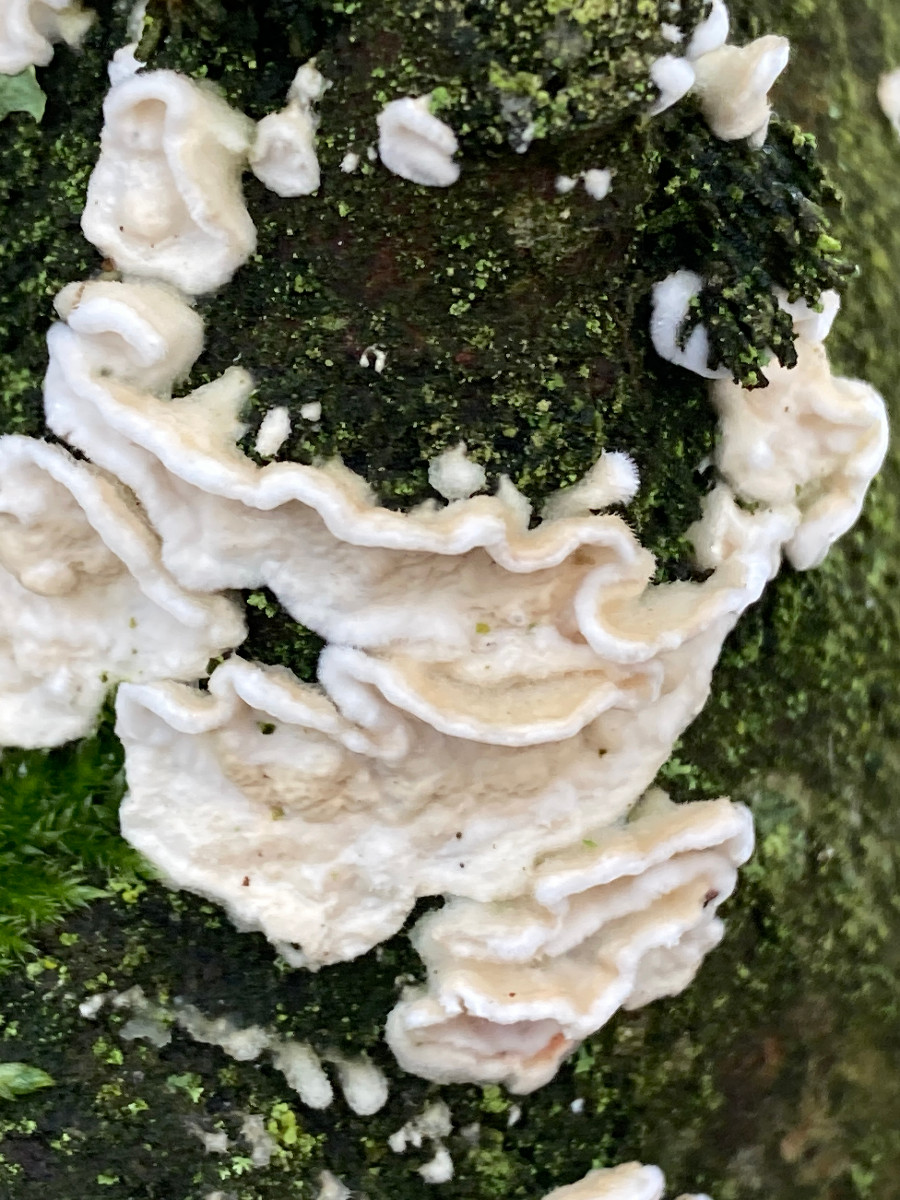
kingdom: Fungi
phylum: Basidiomycota
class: Agaricomycetes
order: Polyporales
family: Irpicaceae
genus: Byssomerulius
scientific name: Byssomerulius corium
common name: læder-åresvamp
